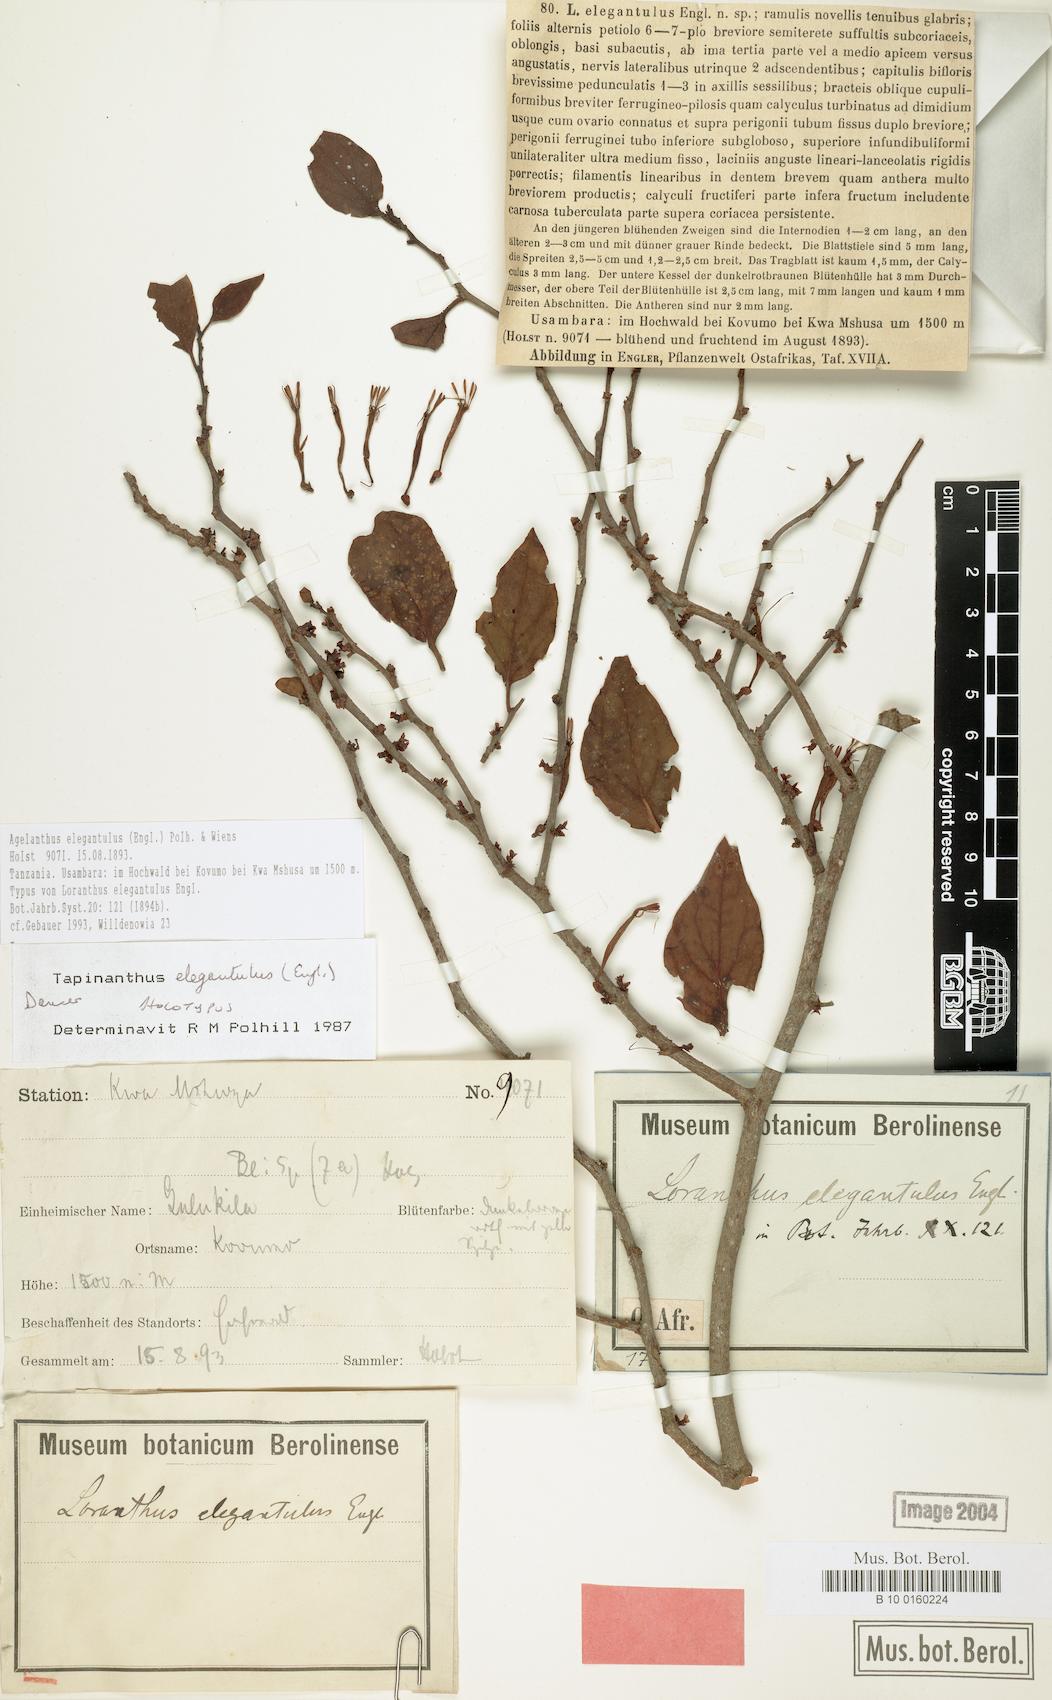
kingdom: Plantae
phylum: Tracheophyta
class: Magnoliopsida
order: Santalales
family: Loranthaceae
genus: Loranthella
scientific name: Loranthella kilimandscharica
